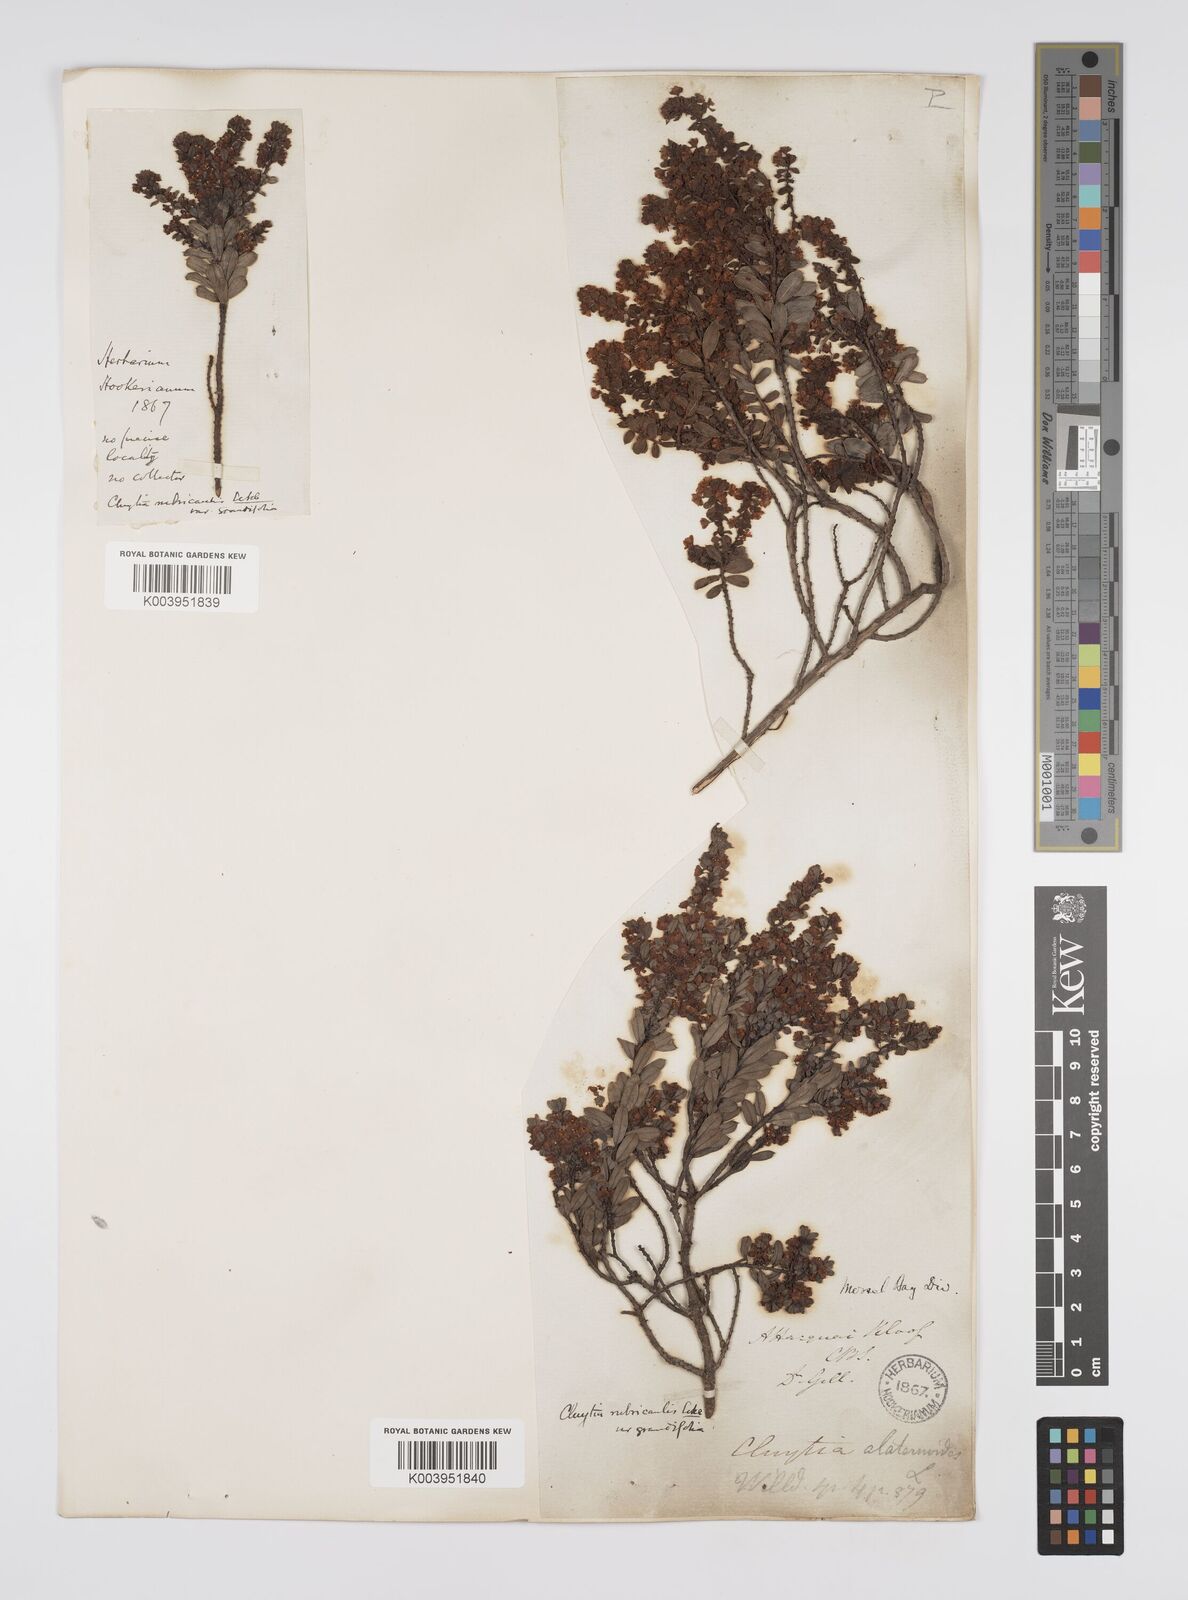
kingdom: Plantae
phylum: Tracheophyta
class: Magnoliopsida
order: Malpighiales
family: Peraceae
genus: Clutia
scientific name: Clutia rubricaulis
